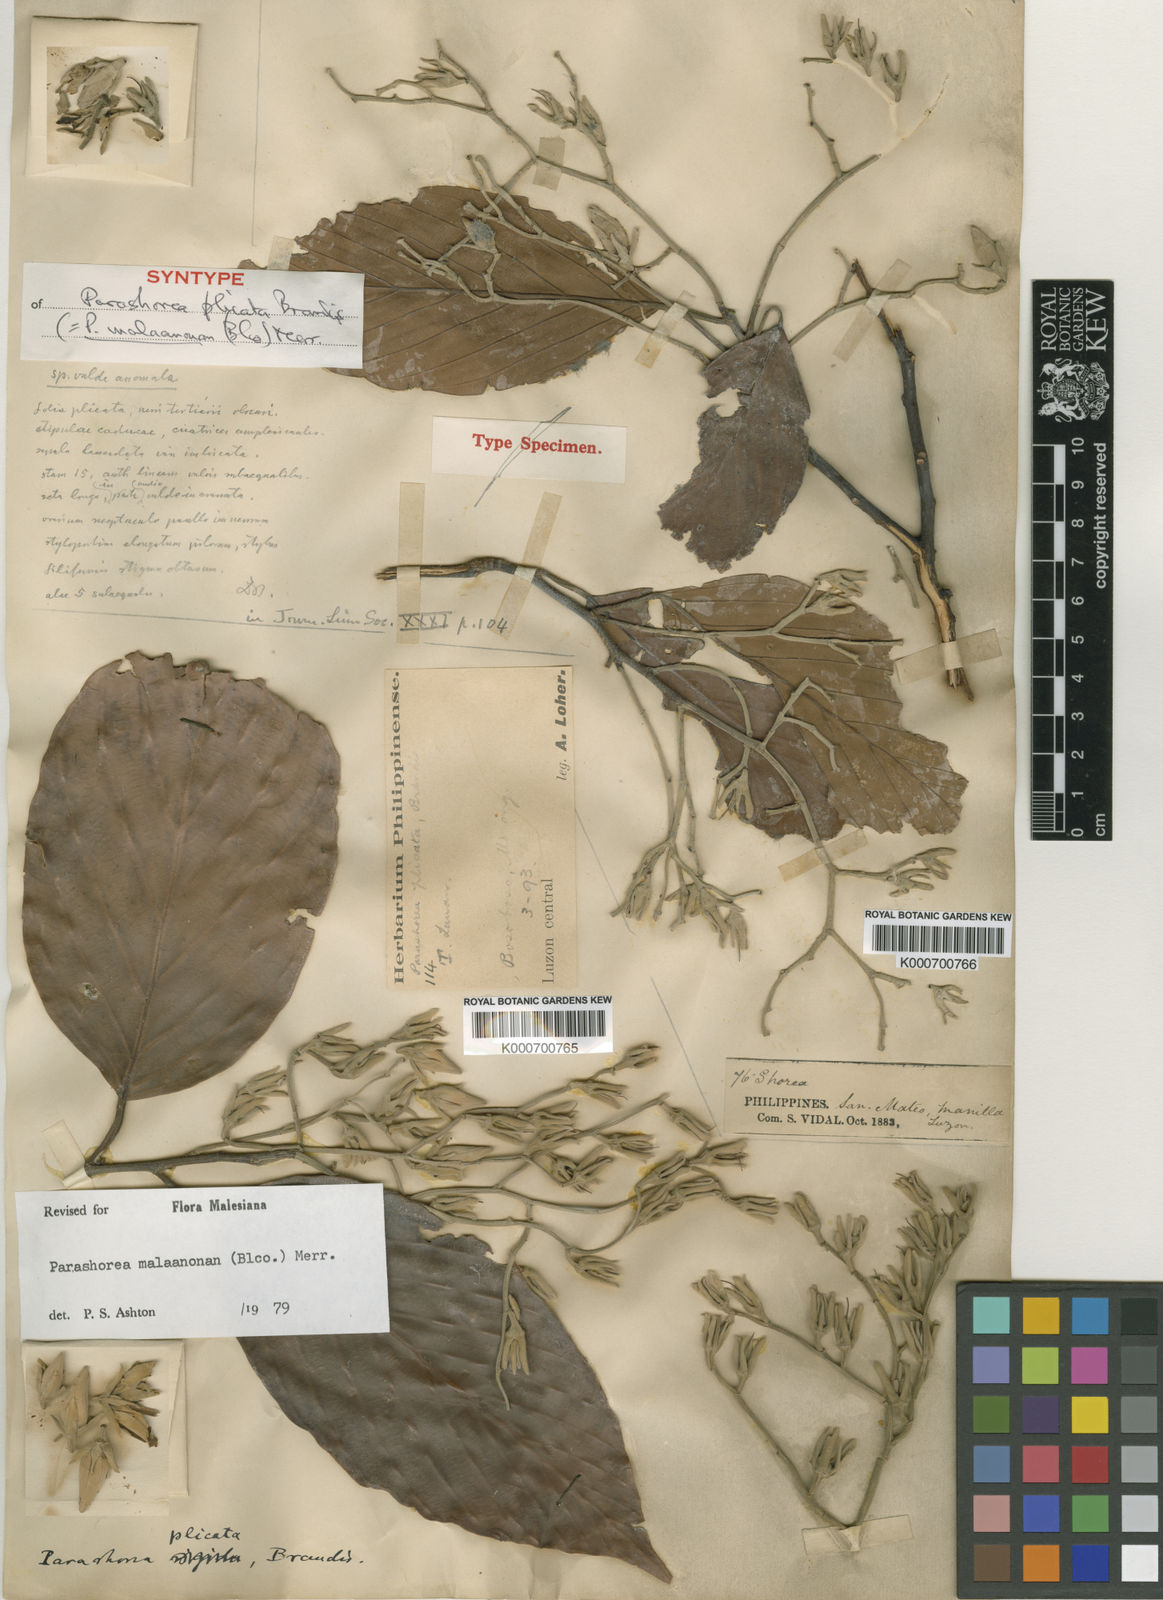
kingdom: Plantae
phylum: Tracheophyta
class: Magnoliopsida
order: Malvales
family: Dipterocarpaceae
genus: Parashorea
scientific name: Parashorea malaanonan
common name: White lauan
